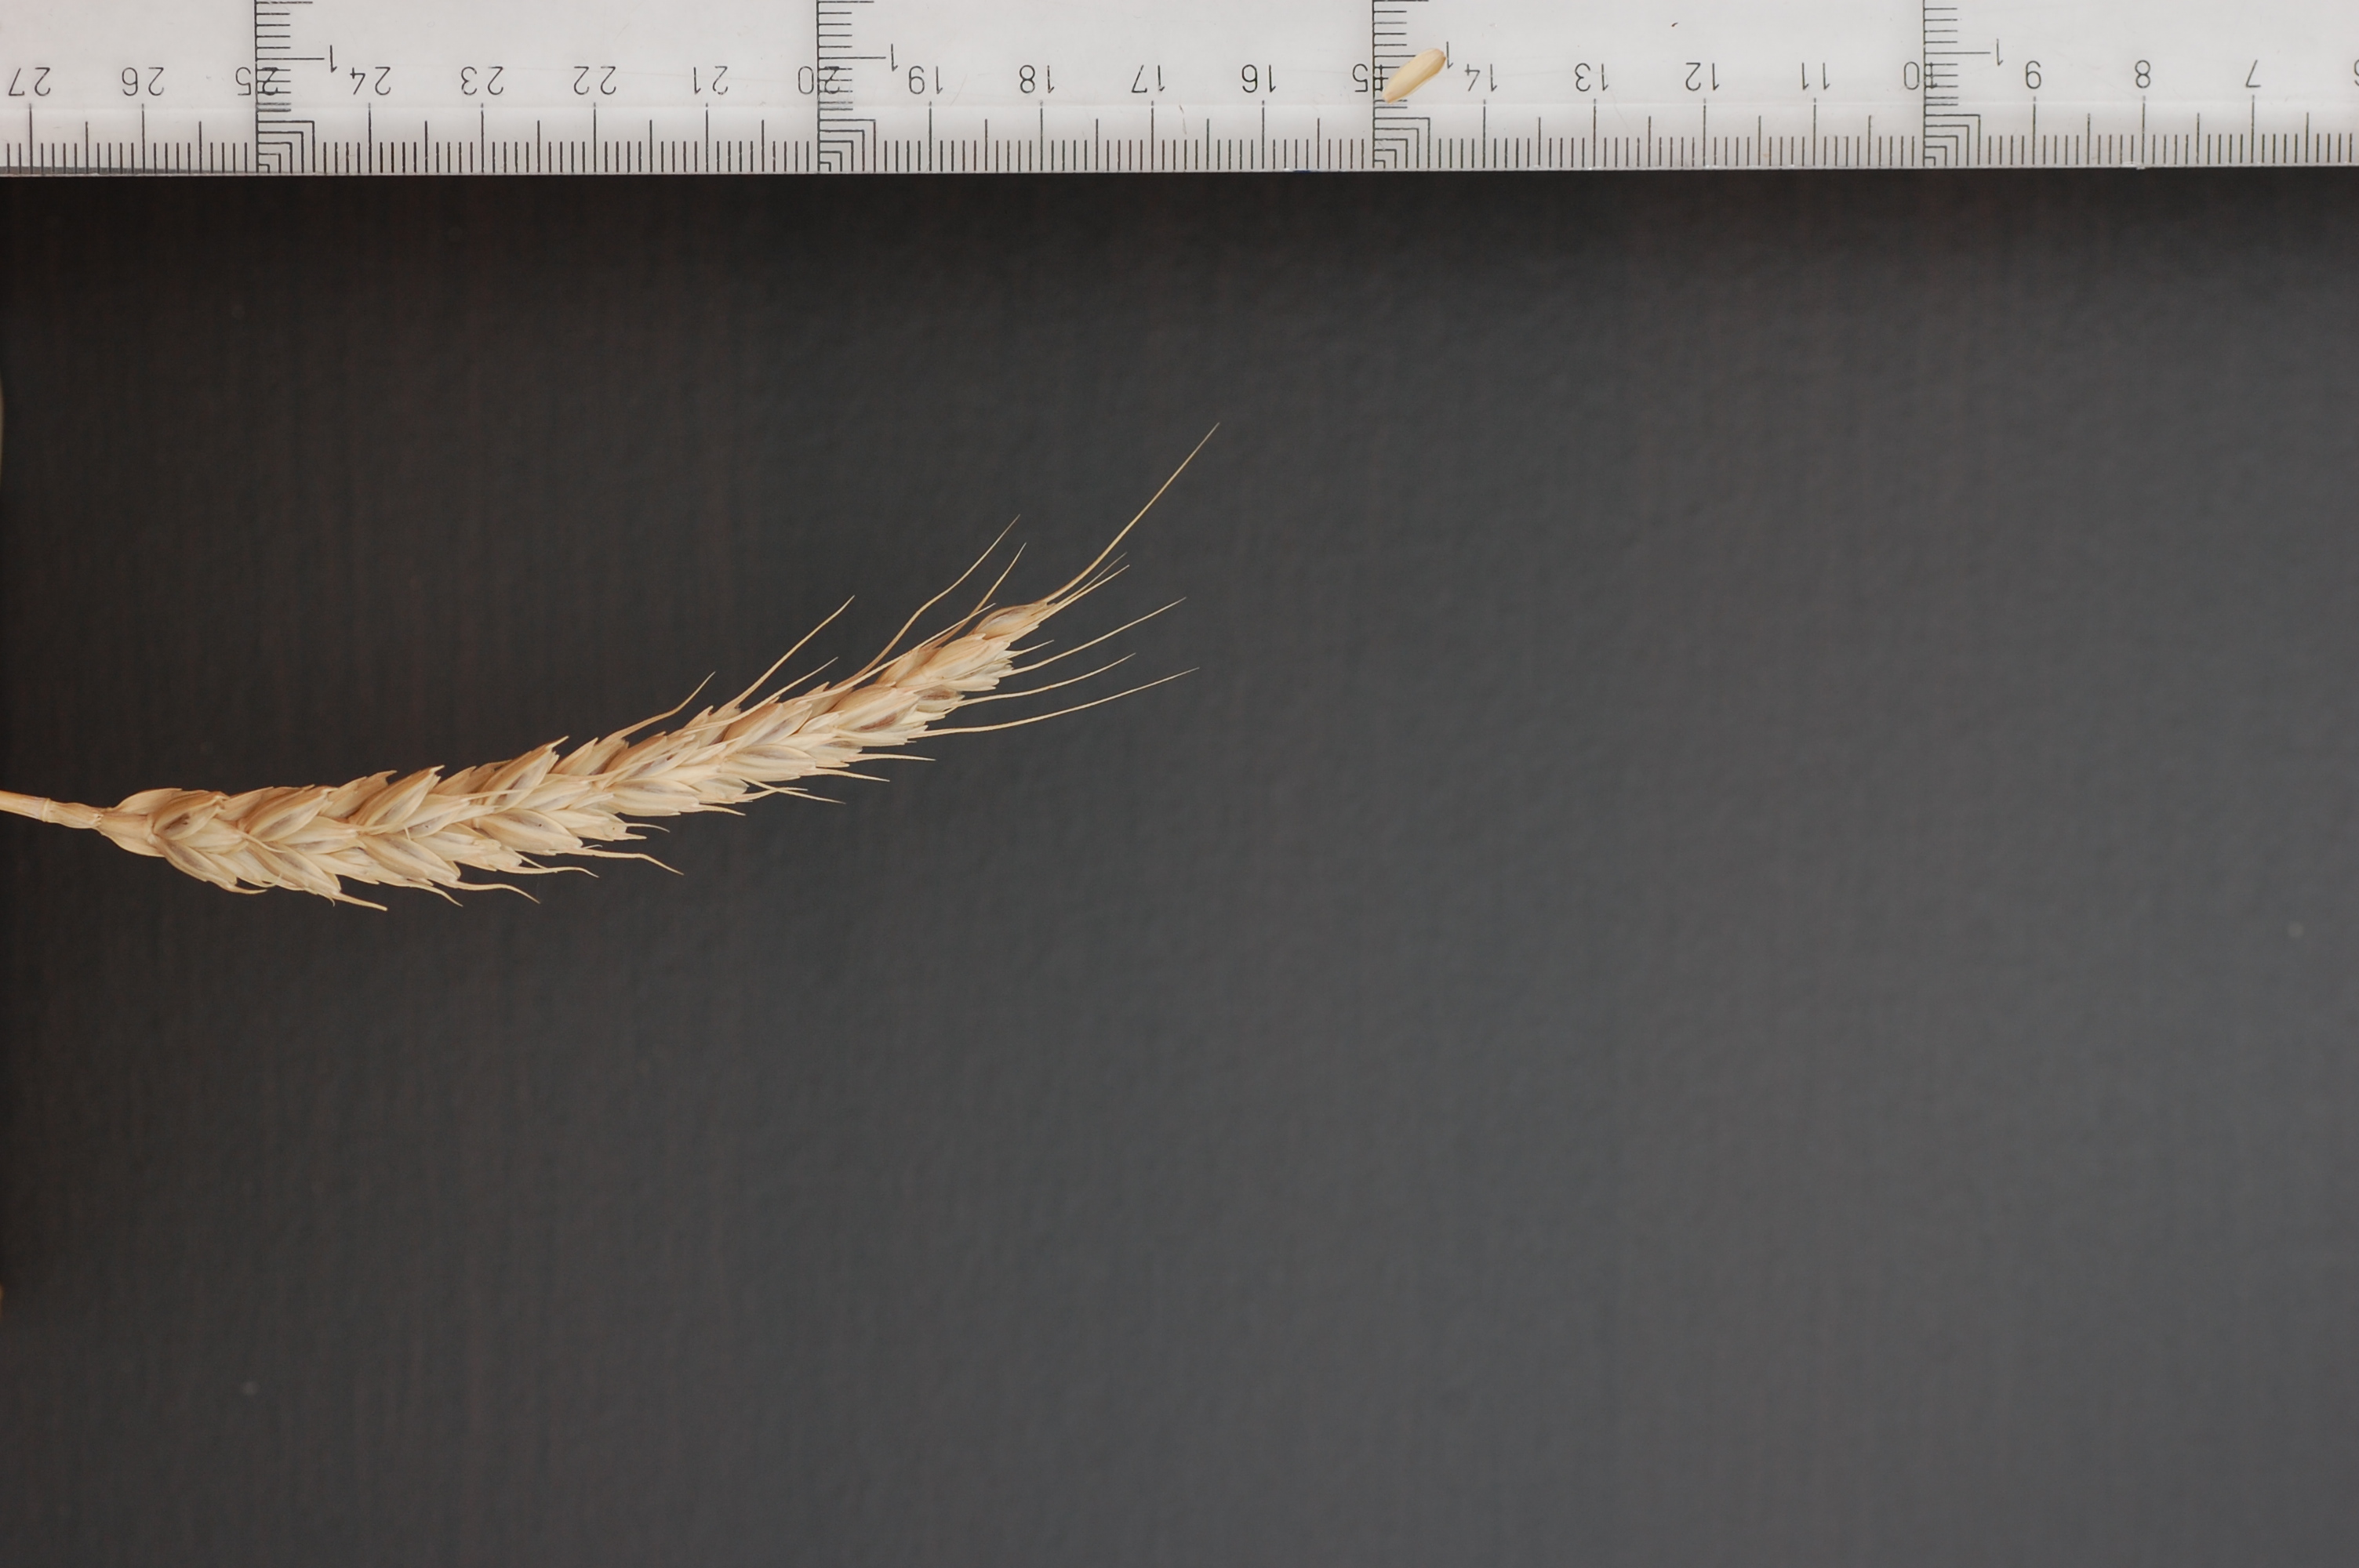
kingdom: Plantae
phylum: Tracheophyta
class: Liliopsida
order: Poales
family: Poaceae
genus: Triticum
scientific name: Triticum aestivum
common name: Common wheat
